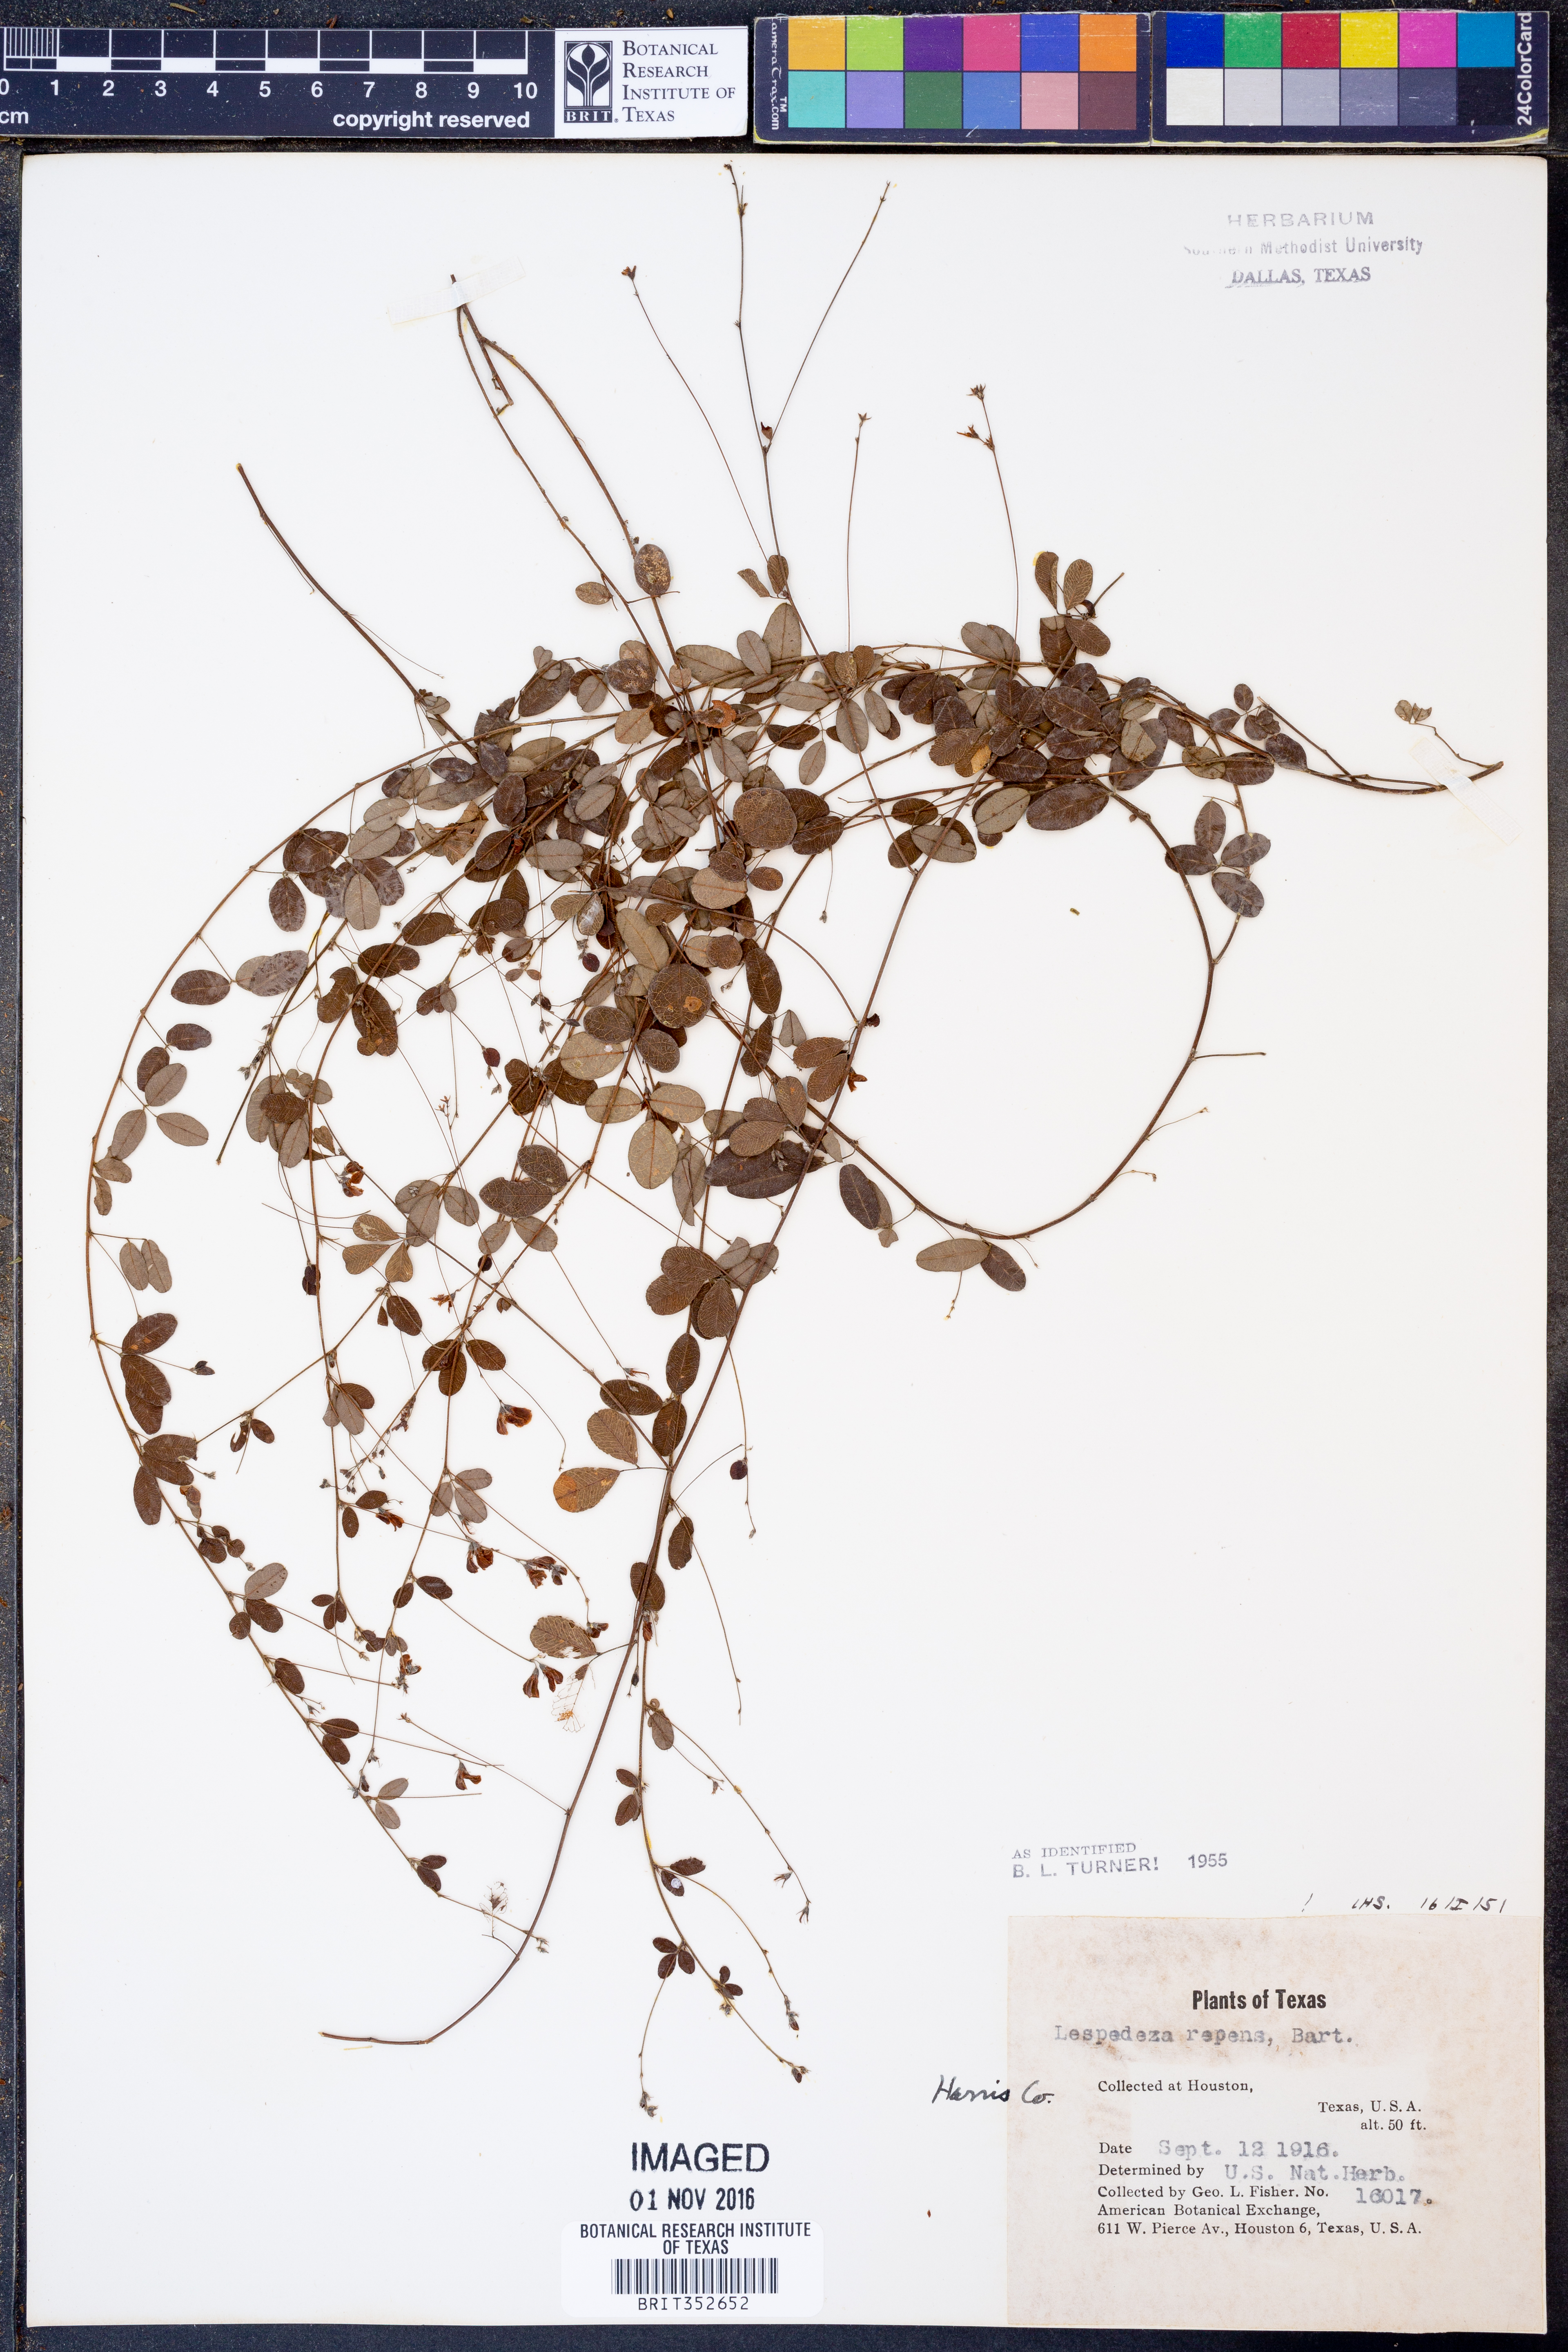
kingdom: Plantae
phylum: Tracheophyta
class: Magnoliopsida
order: Fabales
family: Fabaceae
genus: Lespedeza
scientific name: Lespedeza repens
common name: Creeping bush-clover
